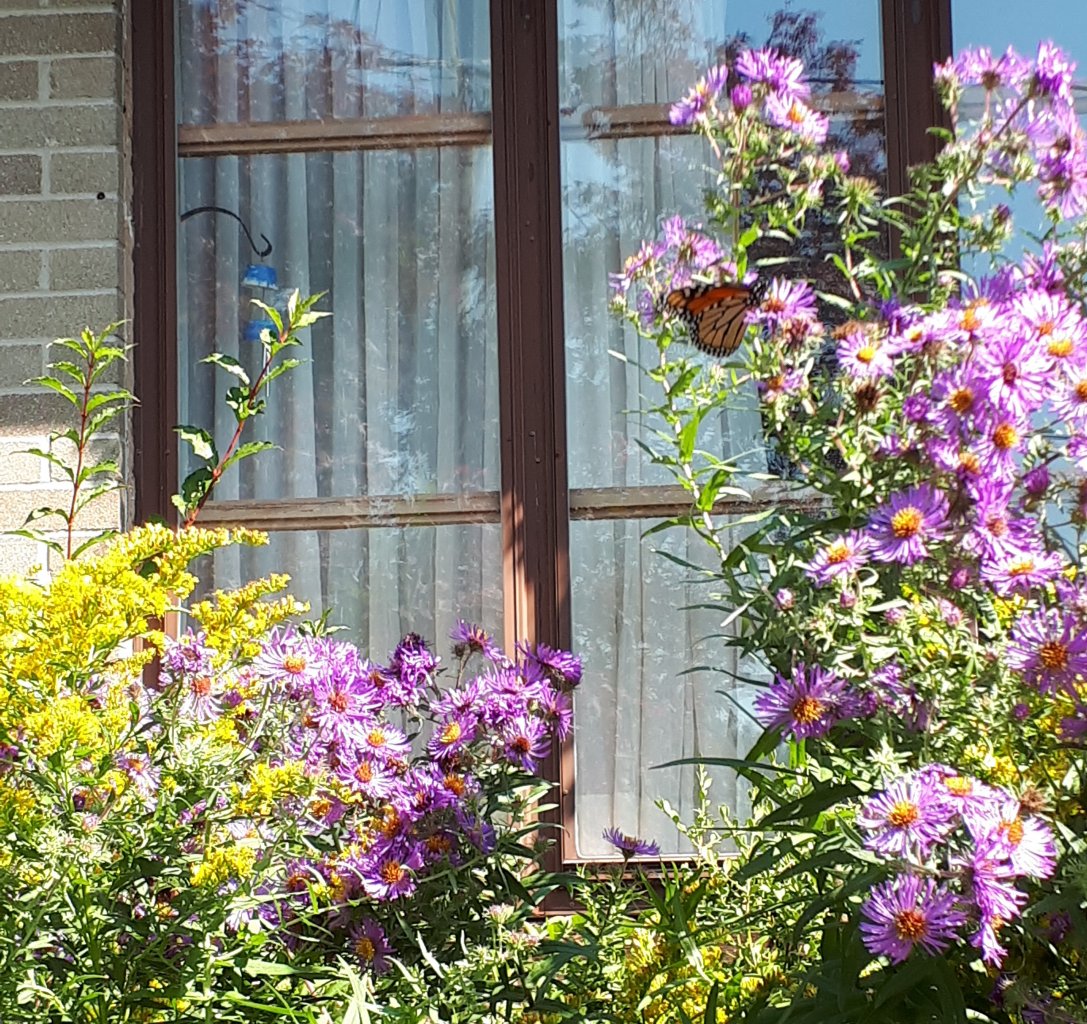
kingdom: Animalia
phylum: Arthropoda
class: Insecta
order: Lepidoptera
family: Nymphalidae
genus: Danaus
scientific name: Danaus plexippus
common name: Monarch
